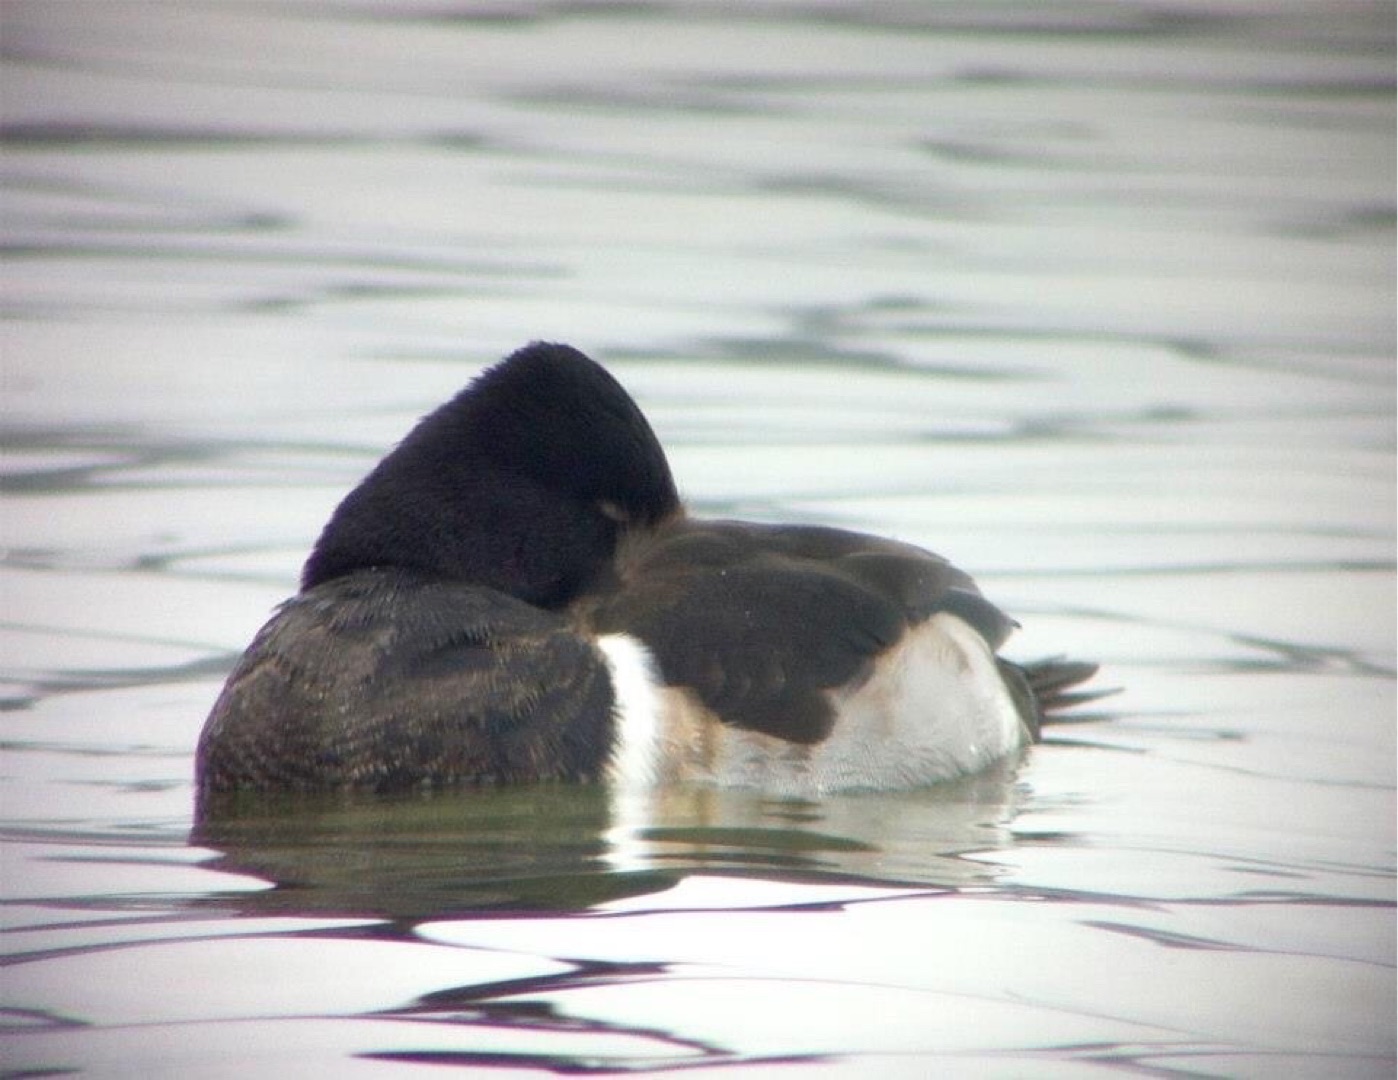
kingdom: Animalia
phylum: Chordata
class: Aves
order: Anseriformes
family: Anatidae
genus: Aythya
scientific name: Aythya collaris
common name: Halsbåndstroldand
